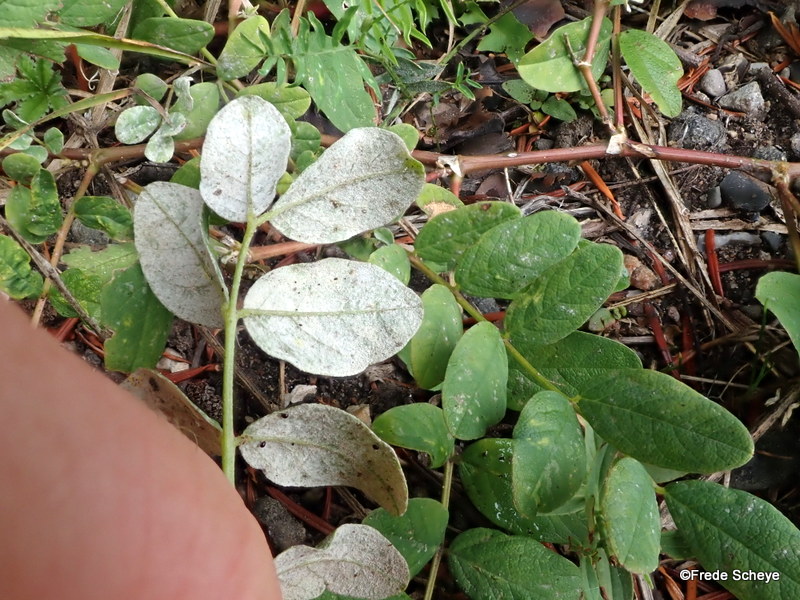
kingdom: Fungi
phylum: Ascomycota
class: Leotiomycetes
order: Helotiales
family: Erysiphaceae
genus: Erysiphe
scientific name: Erysiphe astragali
